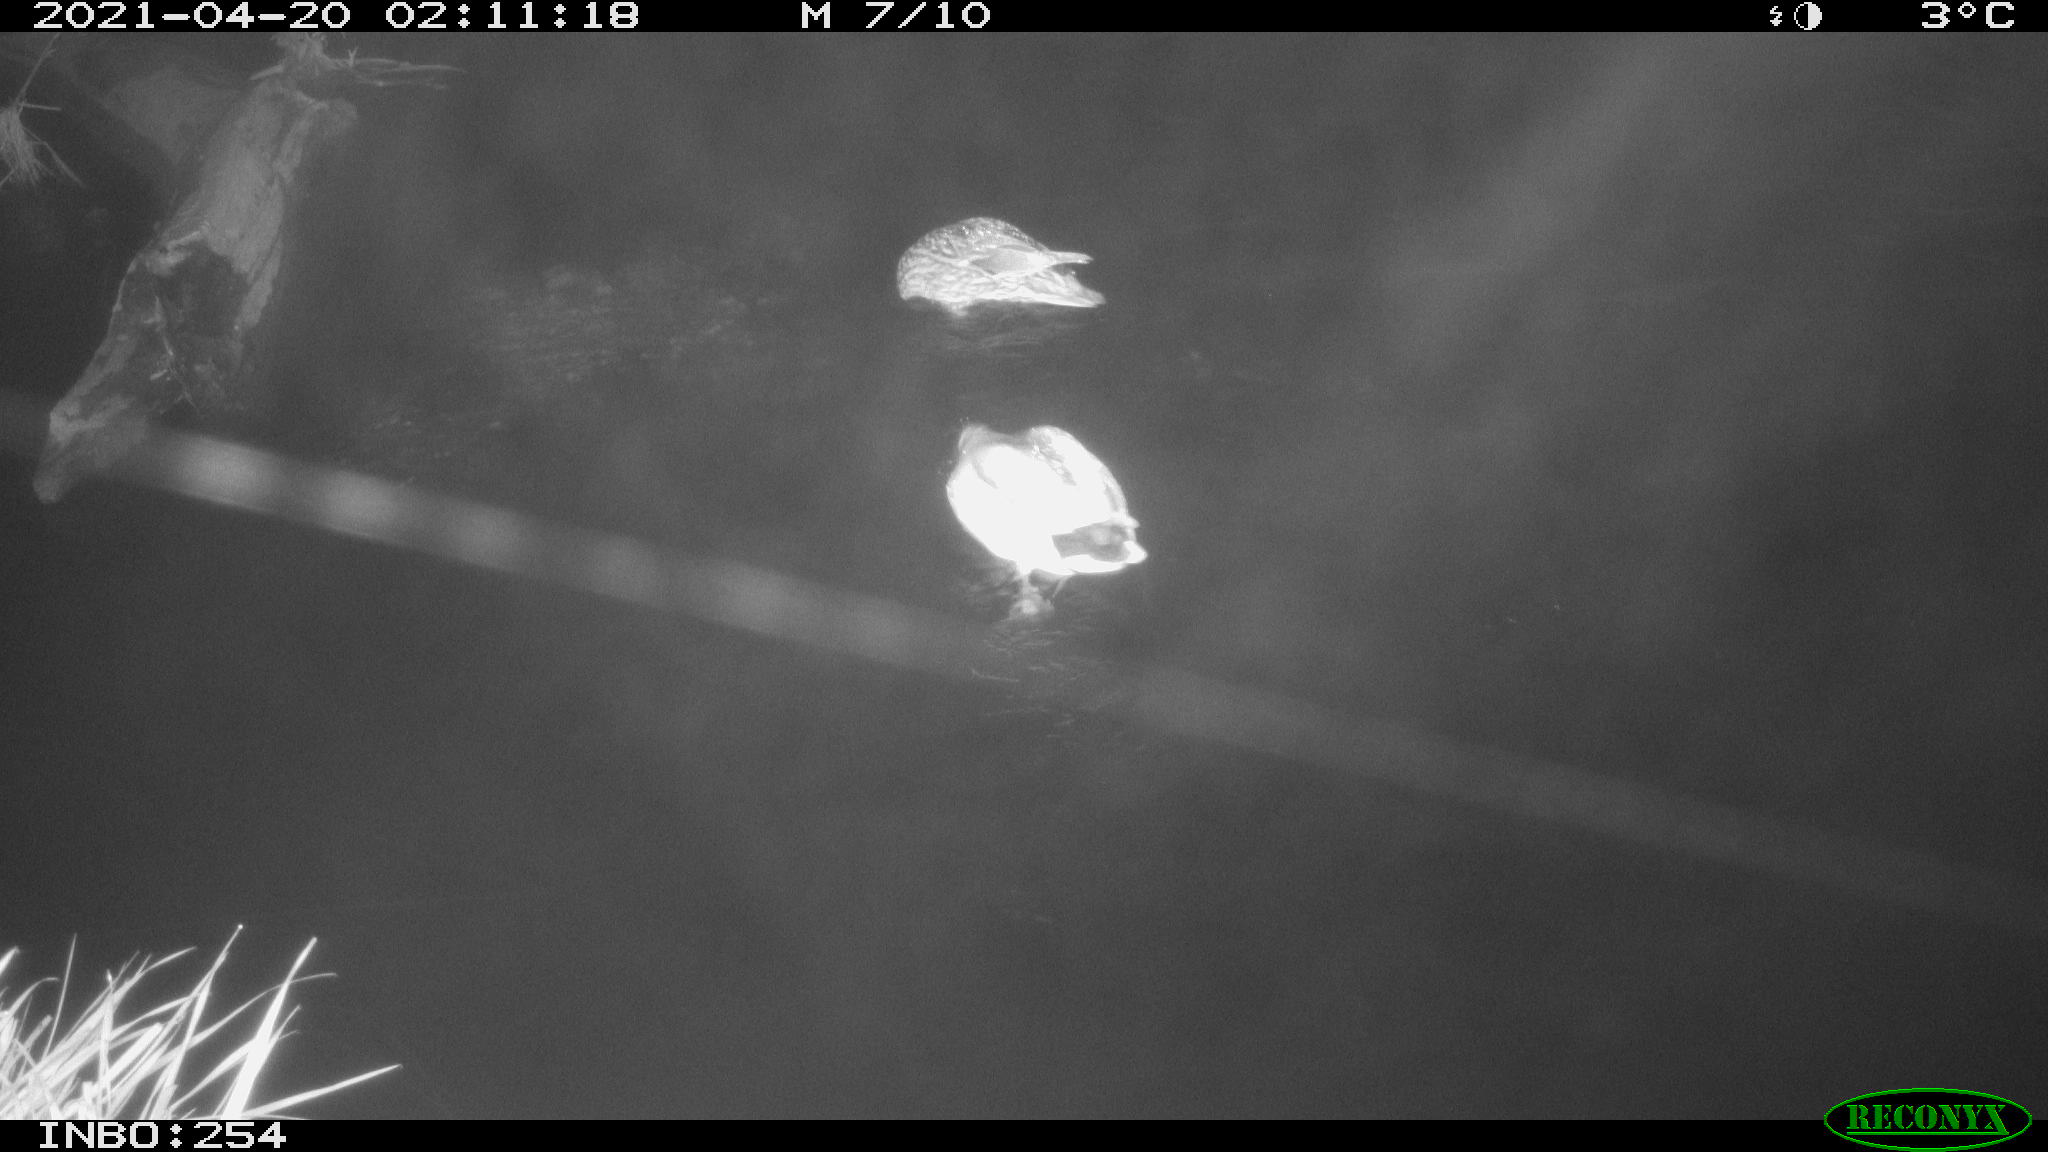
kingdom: Animalia
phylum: Chordata
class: Aves
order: Anseriformes
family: Anatidae
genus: Anas
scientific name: Anas
